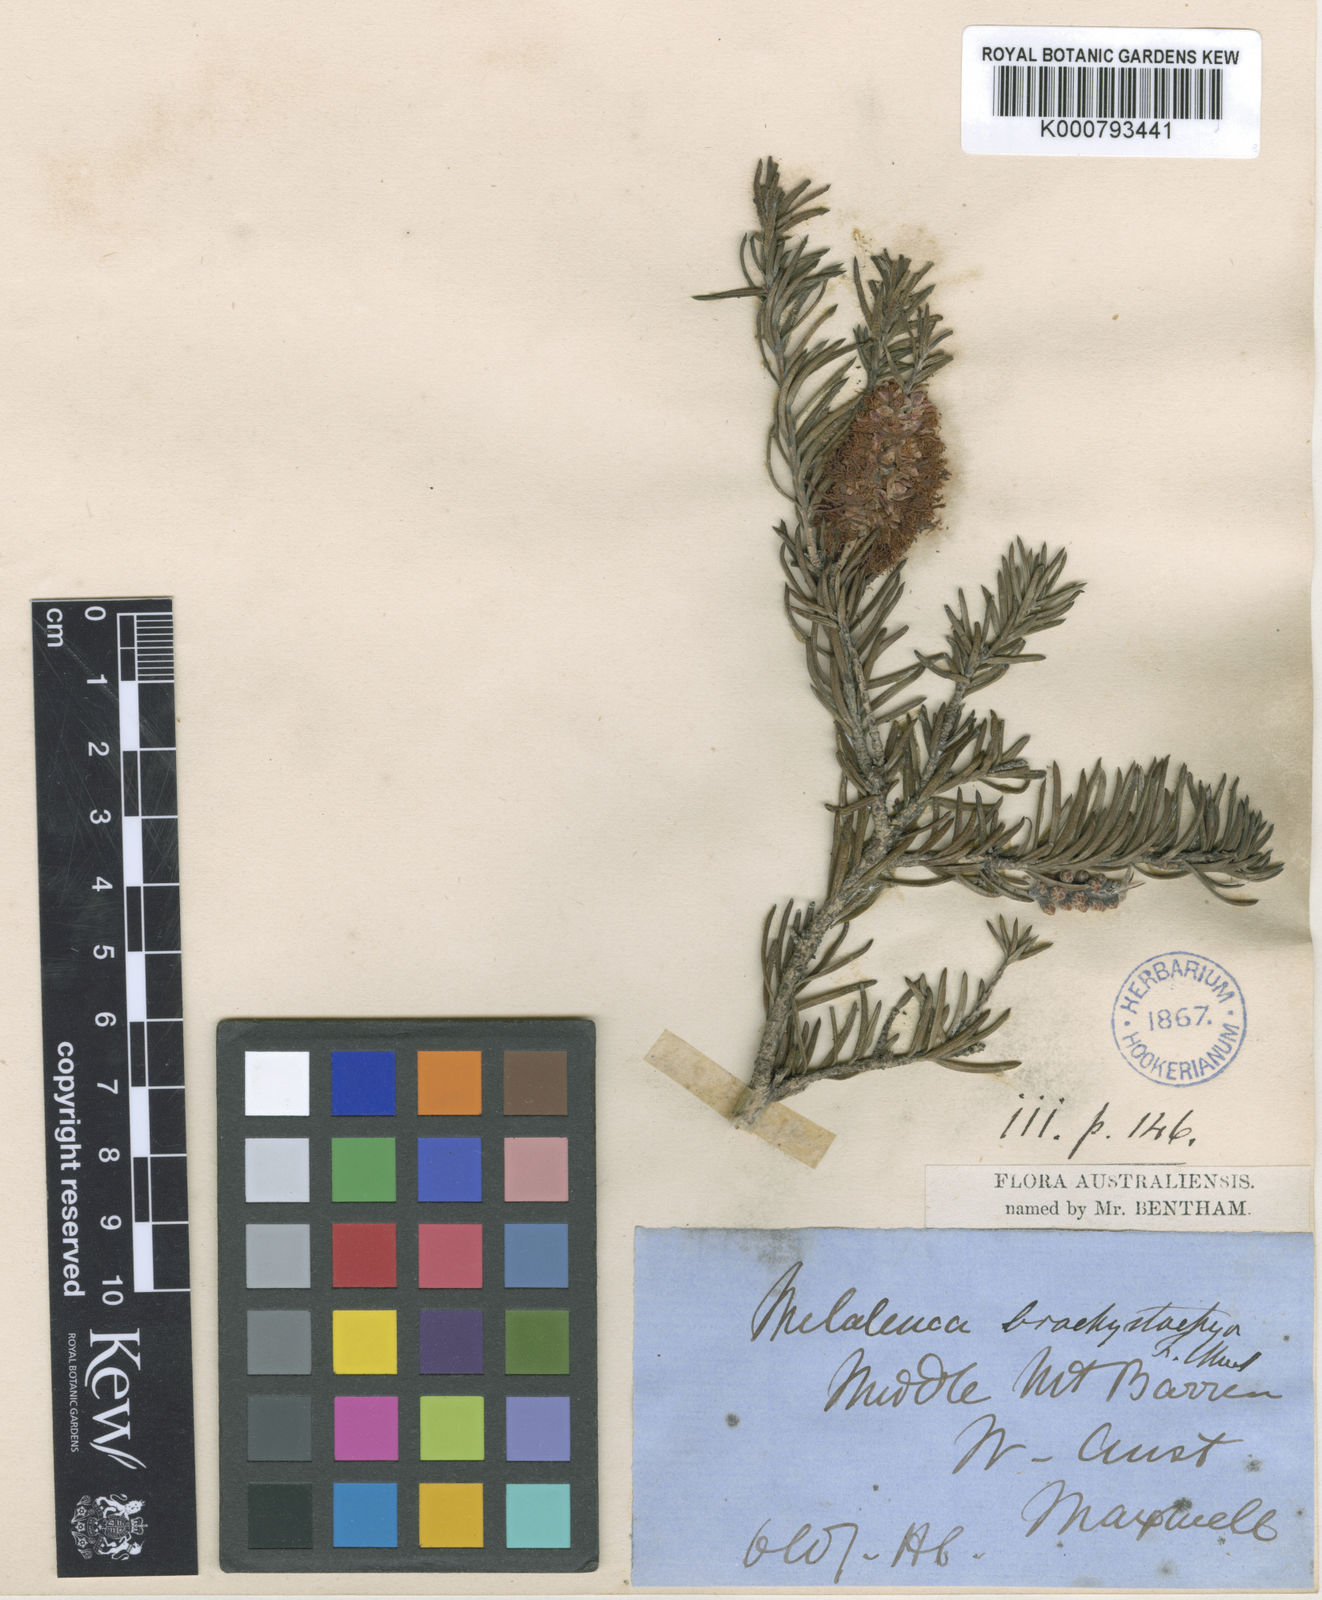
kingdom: Plantae
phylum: Tracheophyta
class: Magnoliopsida
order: Myrtales
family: Myrtaceae
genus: Melaleuca
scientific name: Melaleuca subfalcata
